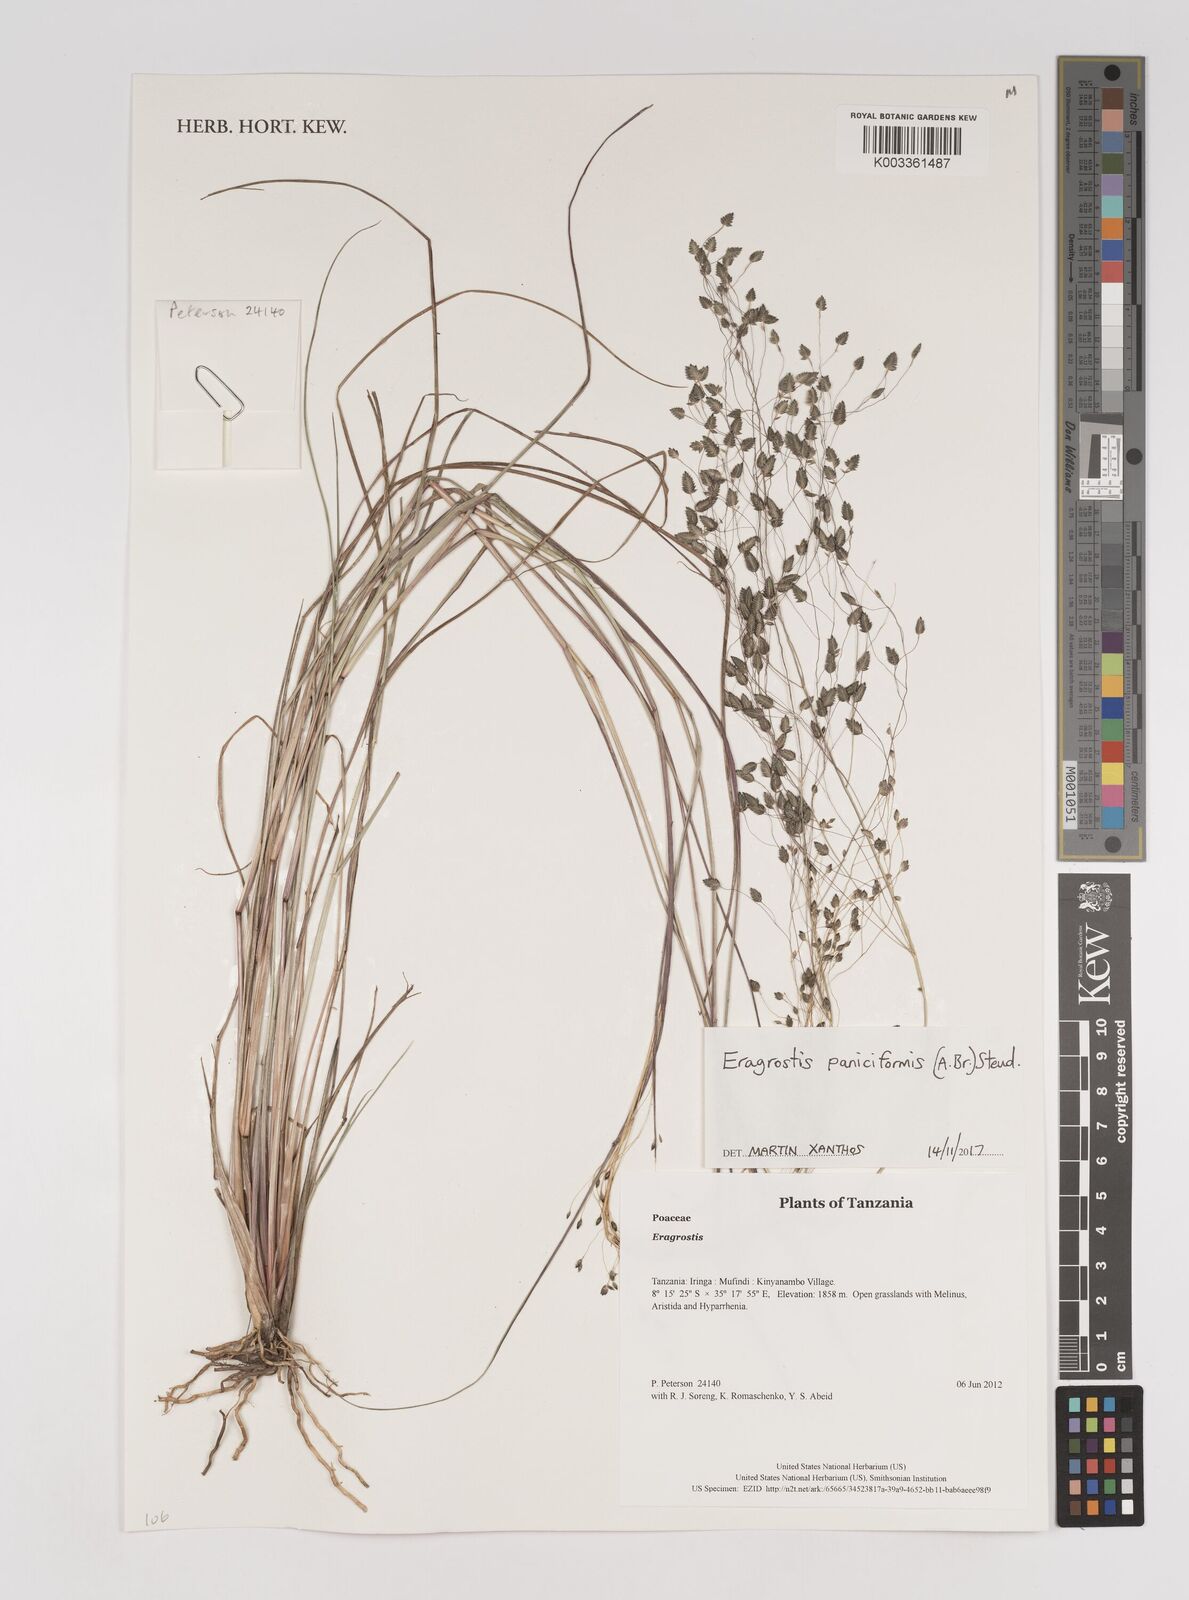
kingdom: Plantae
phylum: Tracheophyta
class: Liliopsida
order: Poales
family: Poaceae
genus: Eragrostis
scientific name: Eragrostis paniciformis
